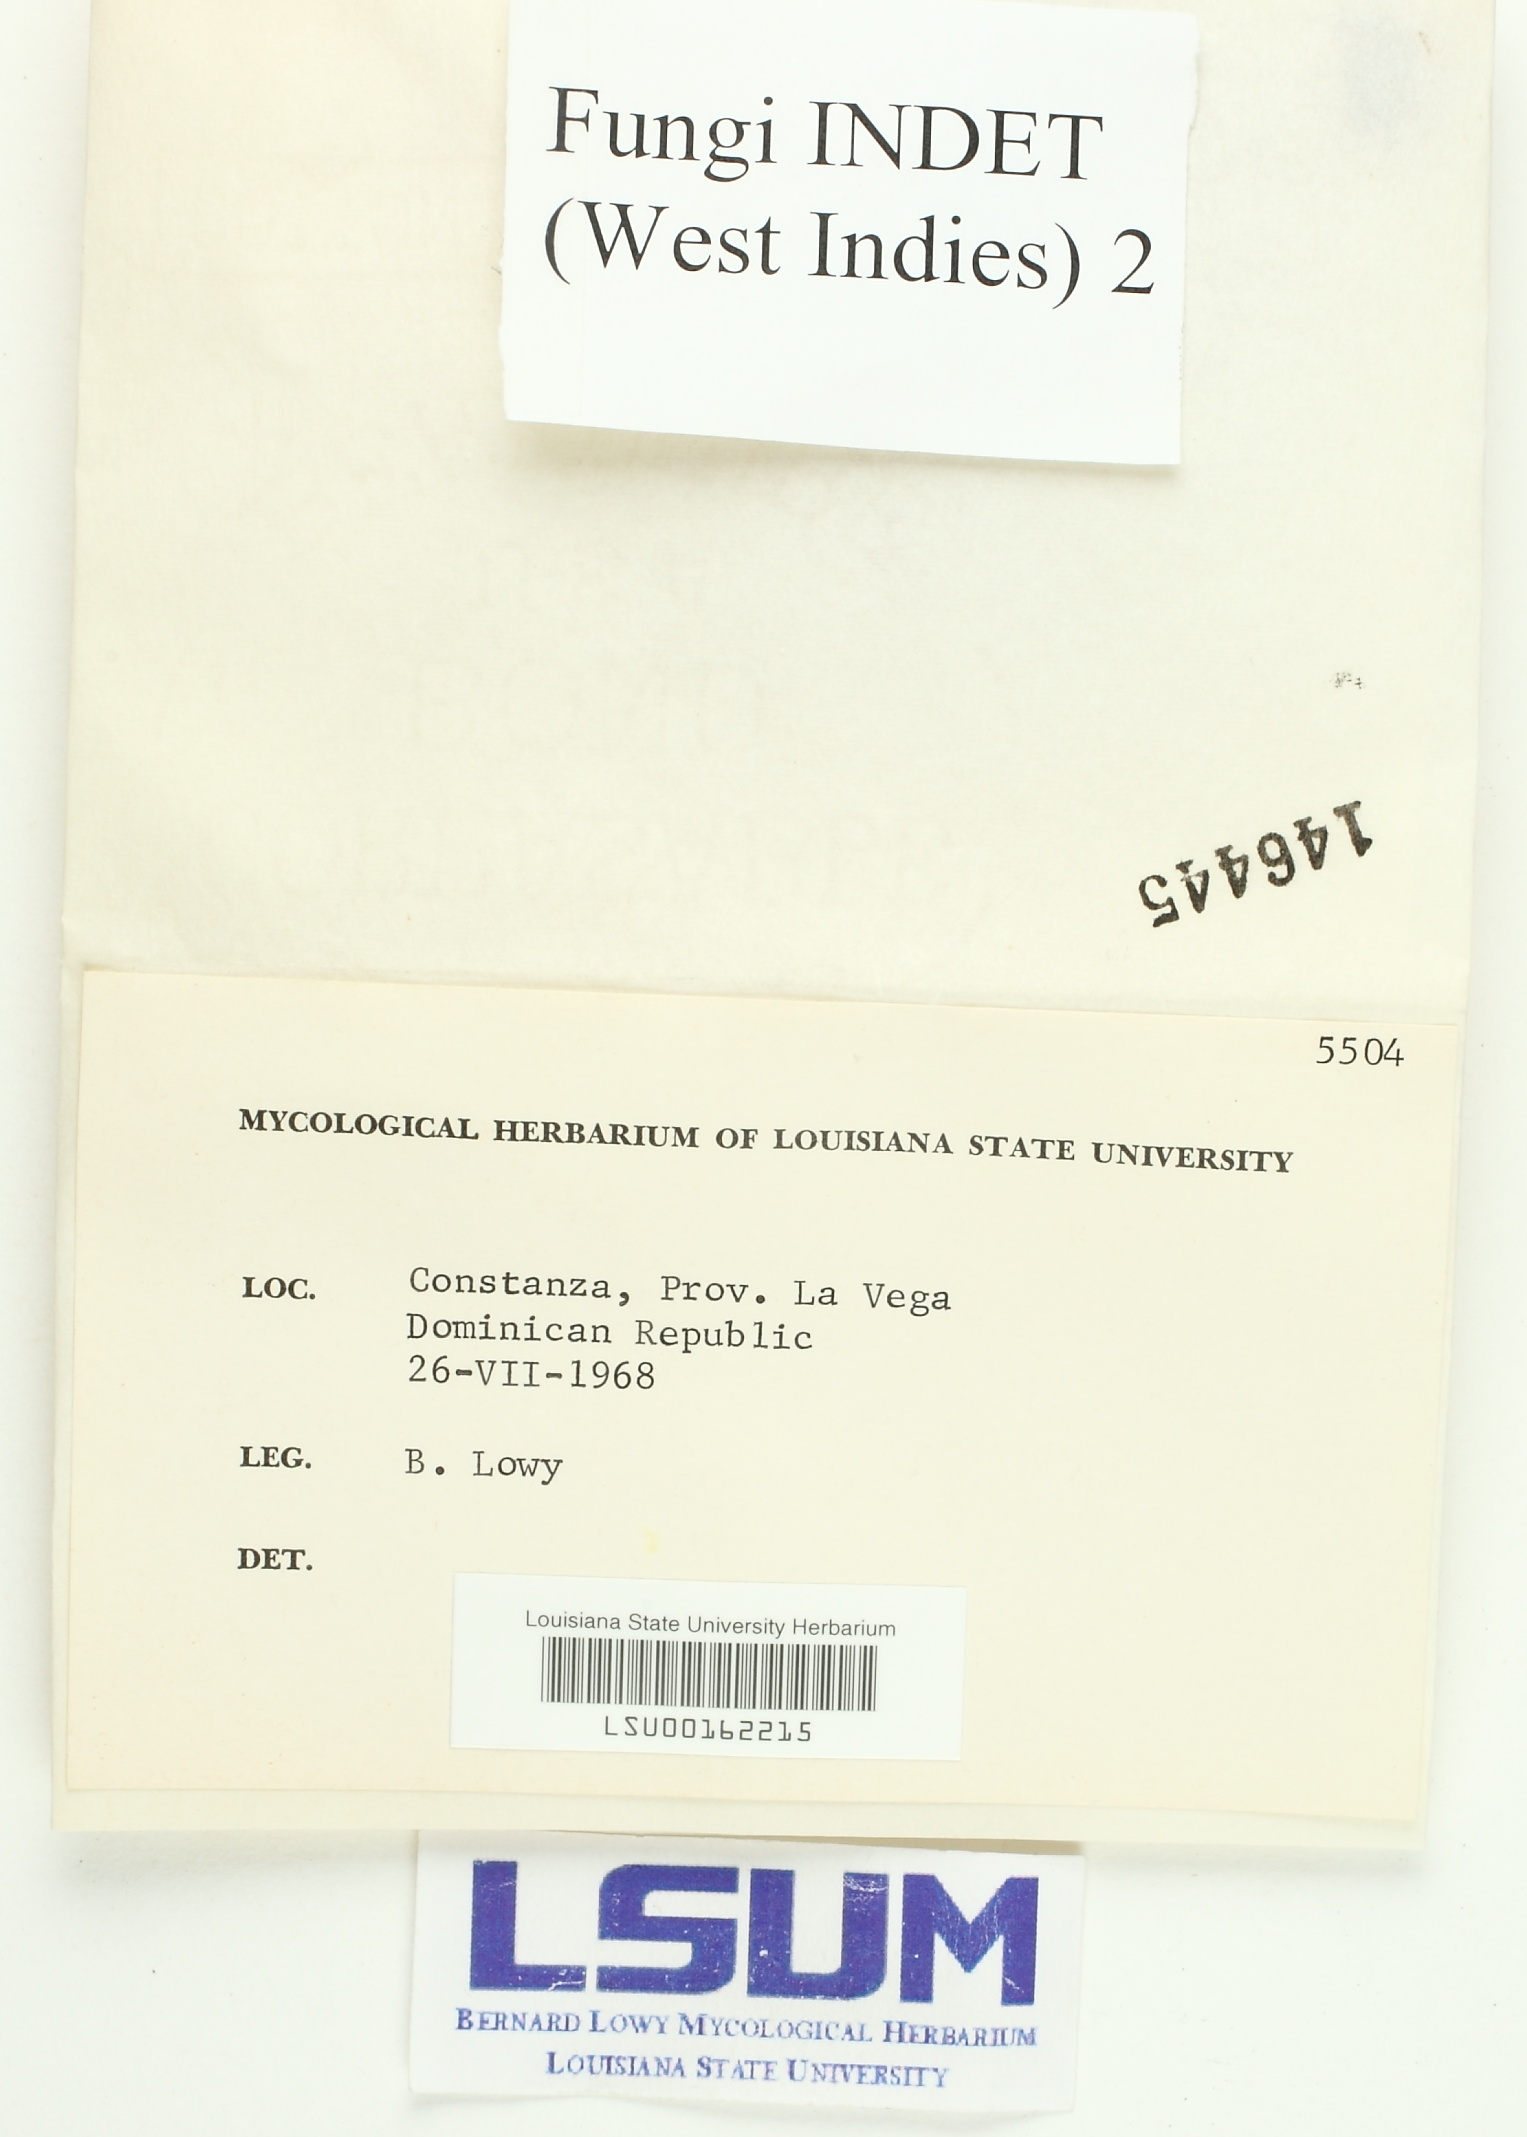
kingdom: Fungi
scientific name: Fungi
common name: Fungi
